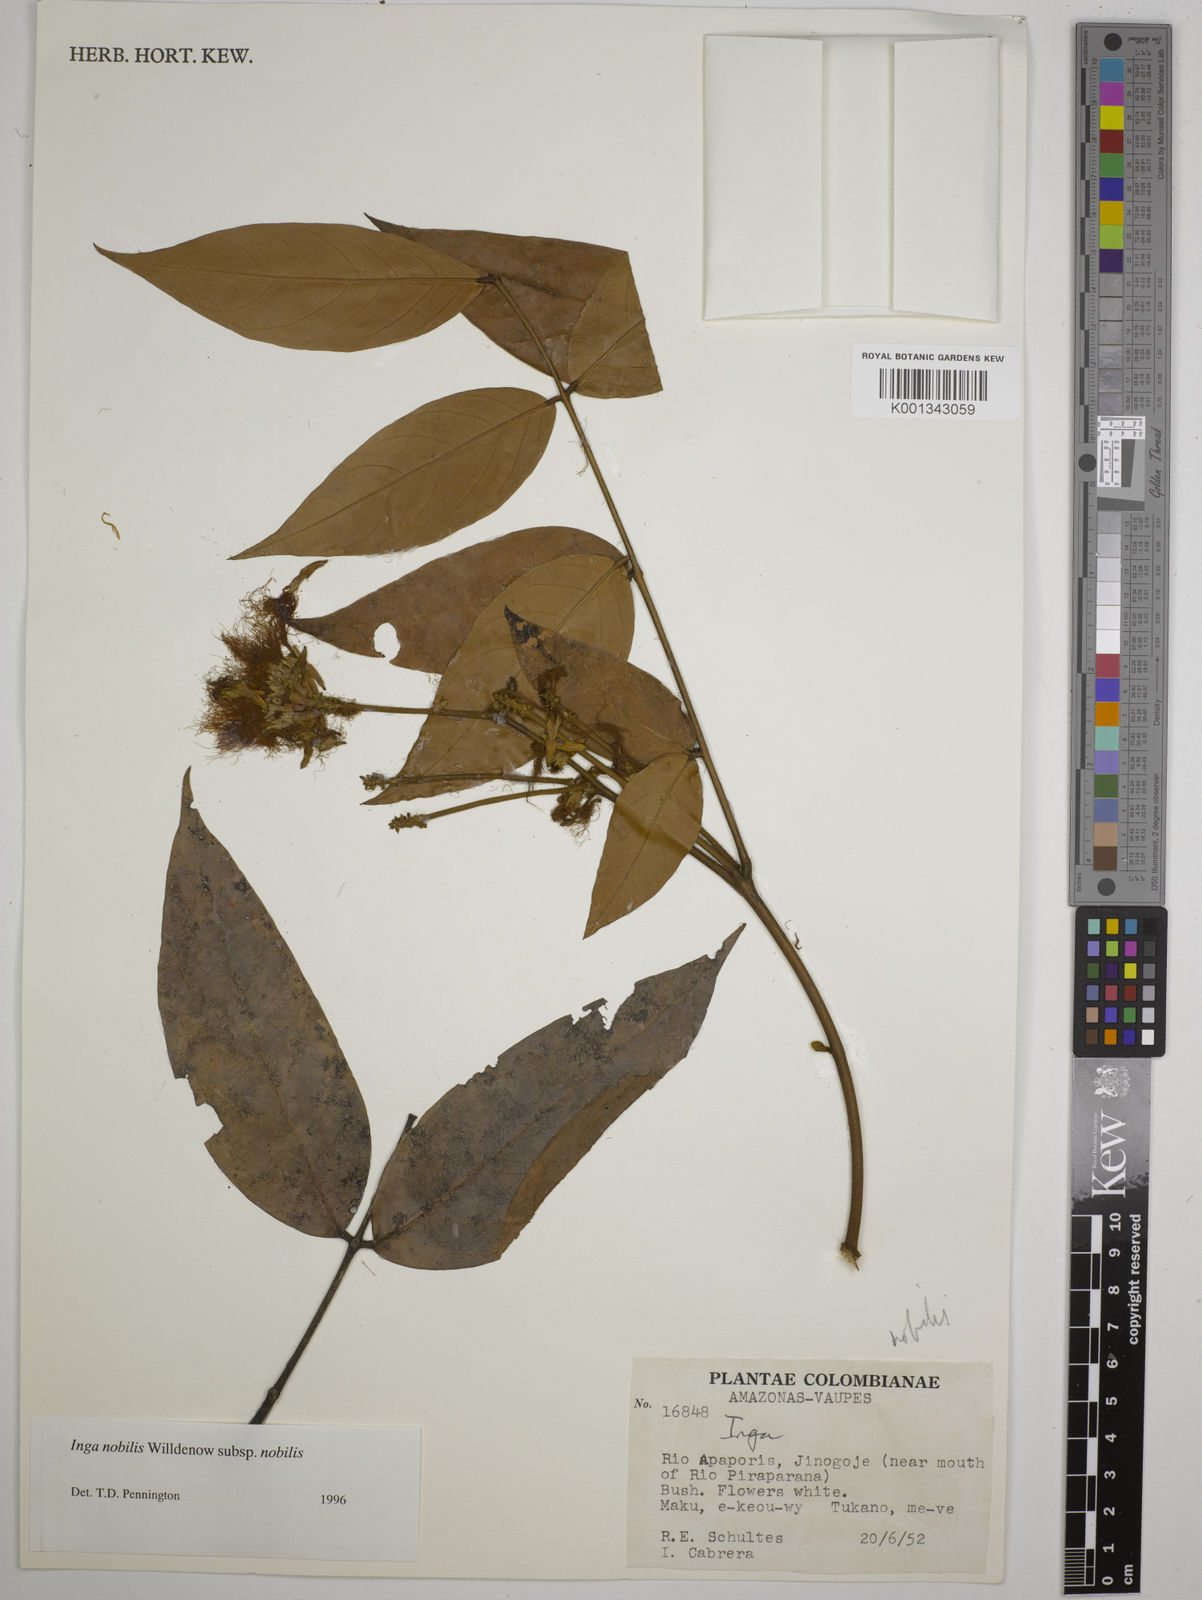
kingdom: Plantae
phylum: Tracheophyta
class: Magnoliopsida
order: Fabales
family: Fabaceae
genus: Inga
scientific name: Inga nobilis
